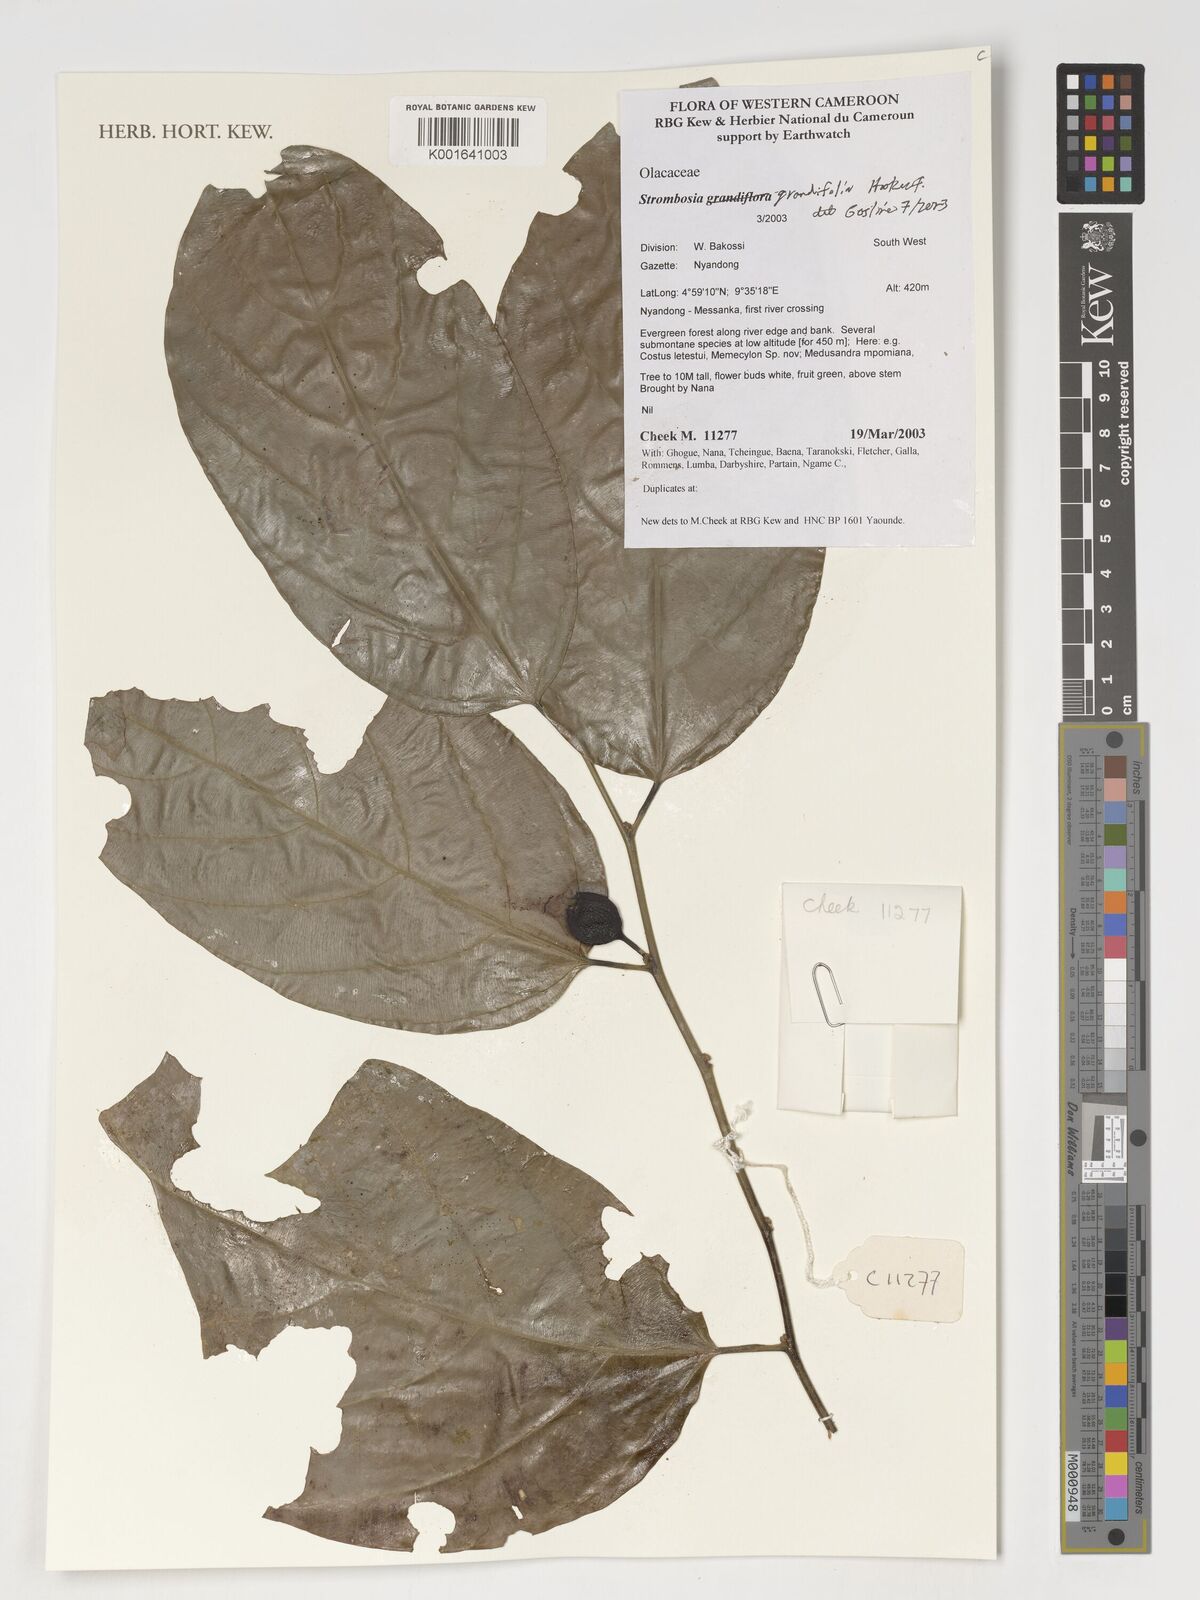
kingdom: Plantae
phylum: Tracheophyta
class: Magnoliopsida
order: Santalales
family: Strombosiaceae
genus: Strombosia
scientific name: Strombosia grandifolia
